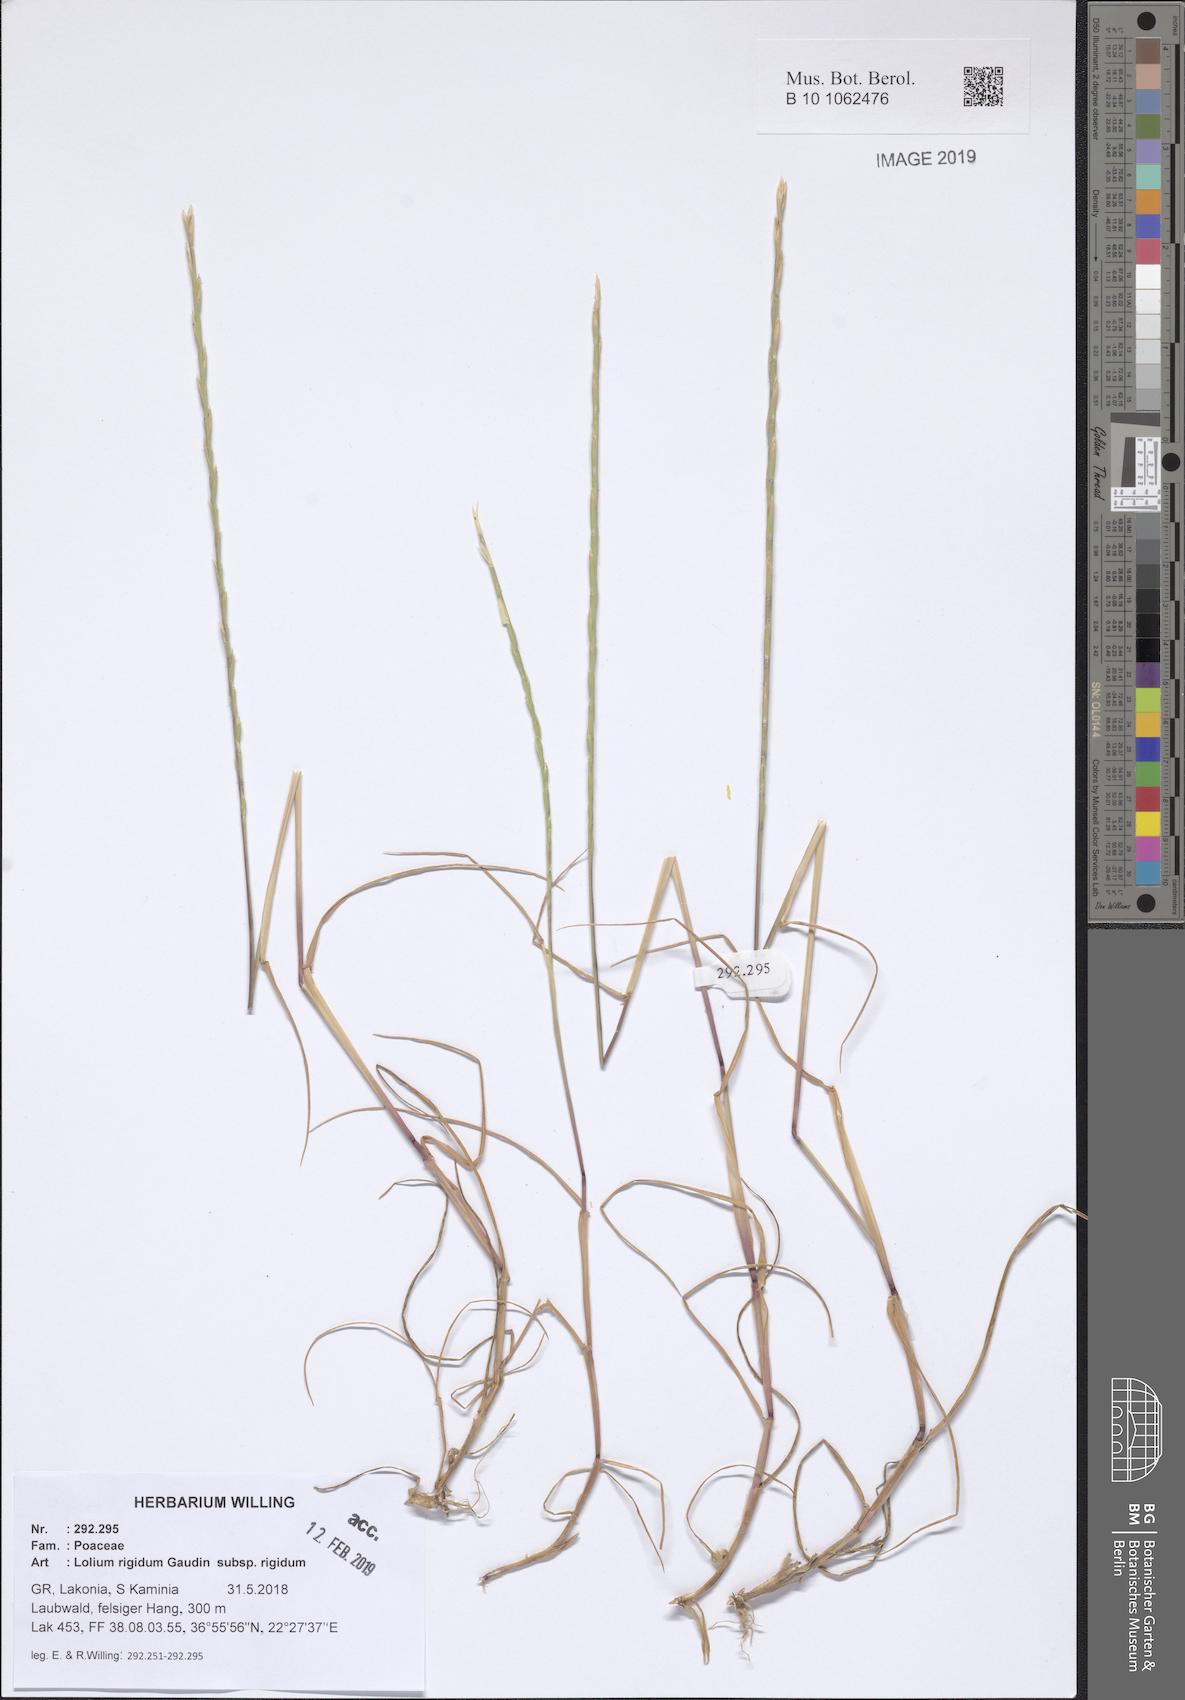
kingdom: Plantae
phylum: Tracheophyta
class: Liliopsida
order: Poales
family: Poaceae
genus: Lolium
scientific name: Lolium rigidum
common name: Wimmera ryegrass
